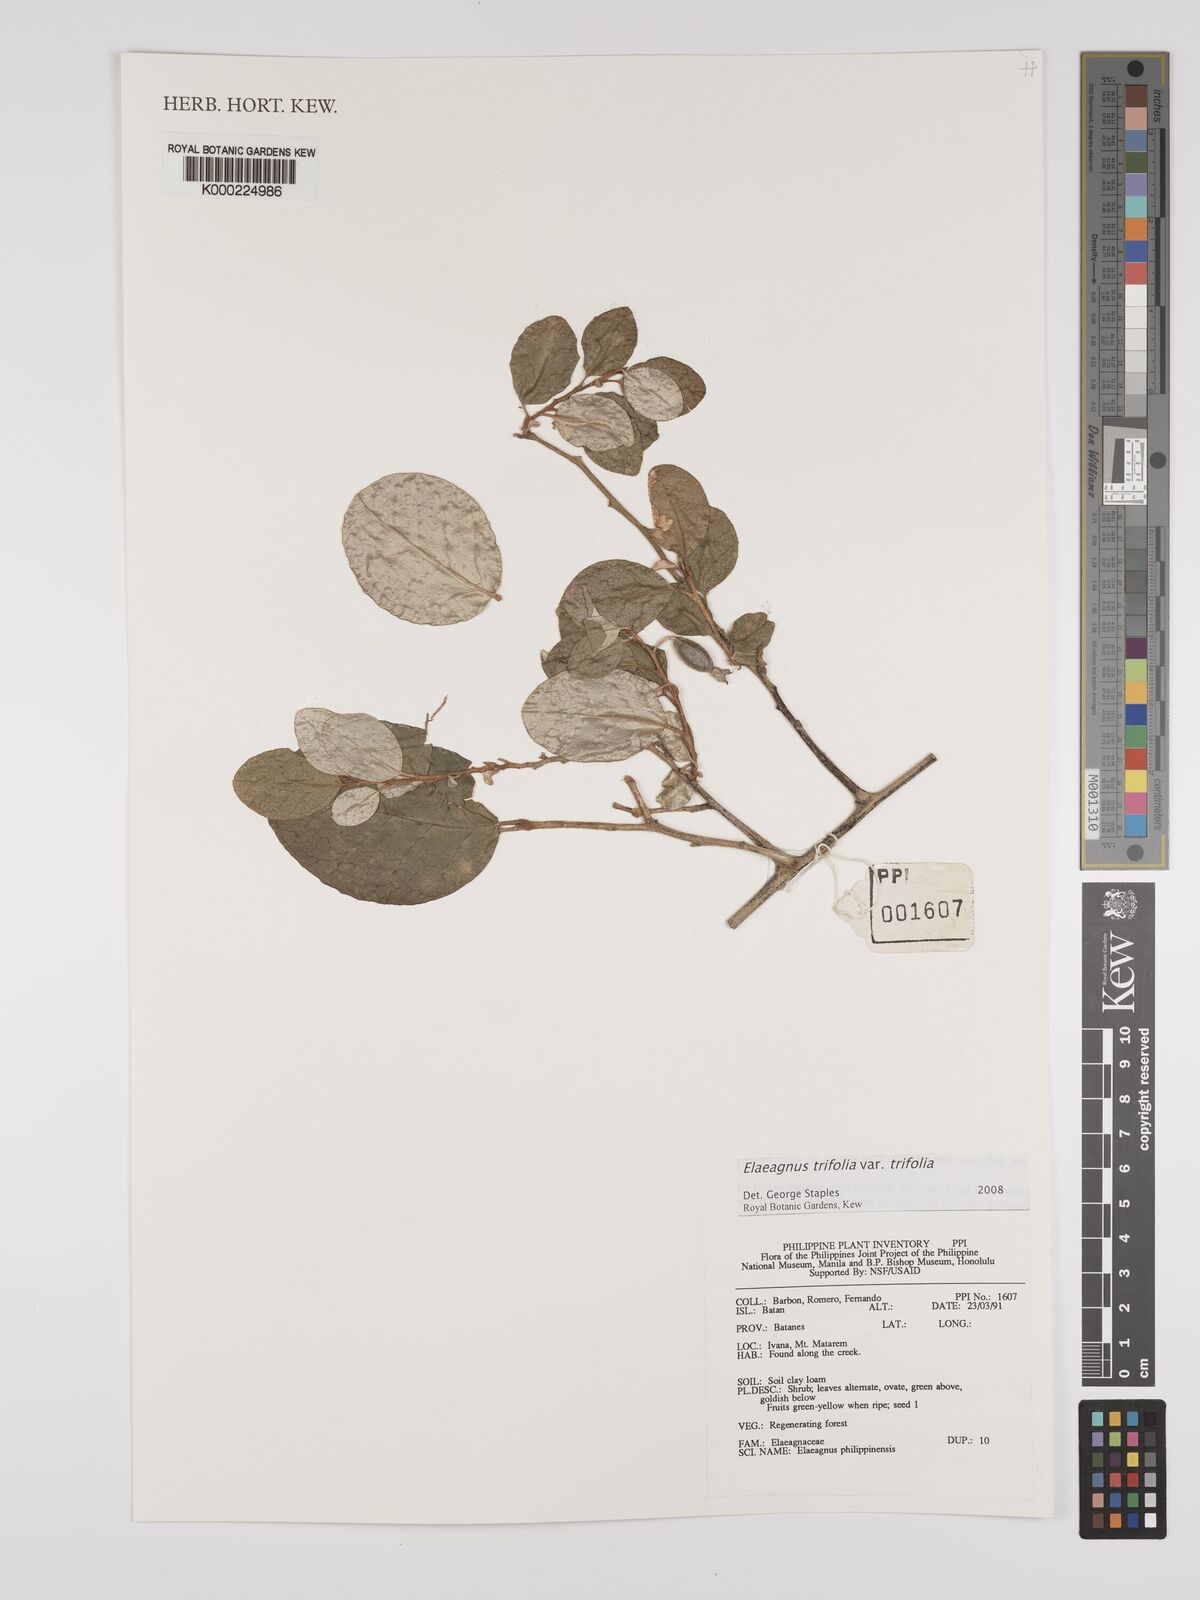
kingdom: Plantae
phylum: Tracheophyta
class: Magnoliopsida
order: Rosales
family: Elaeagnaceae
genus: Elaeagnus
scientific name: Elaeagnus
